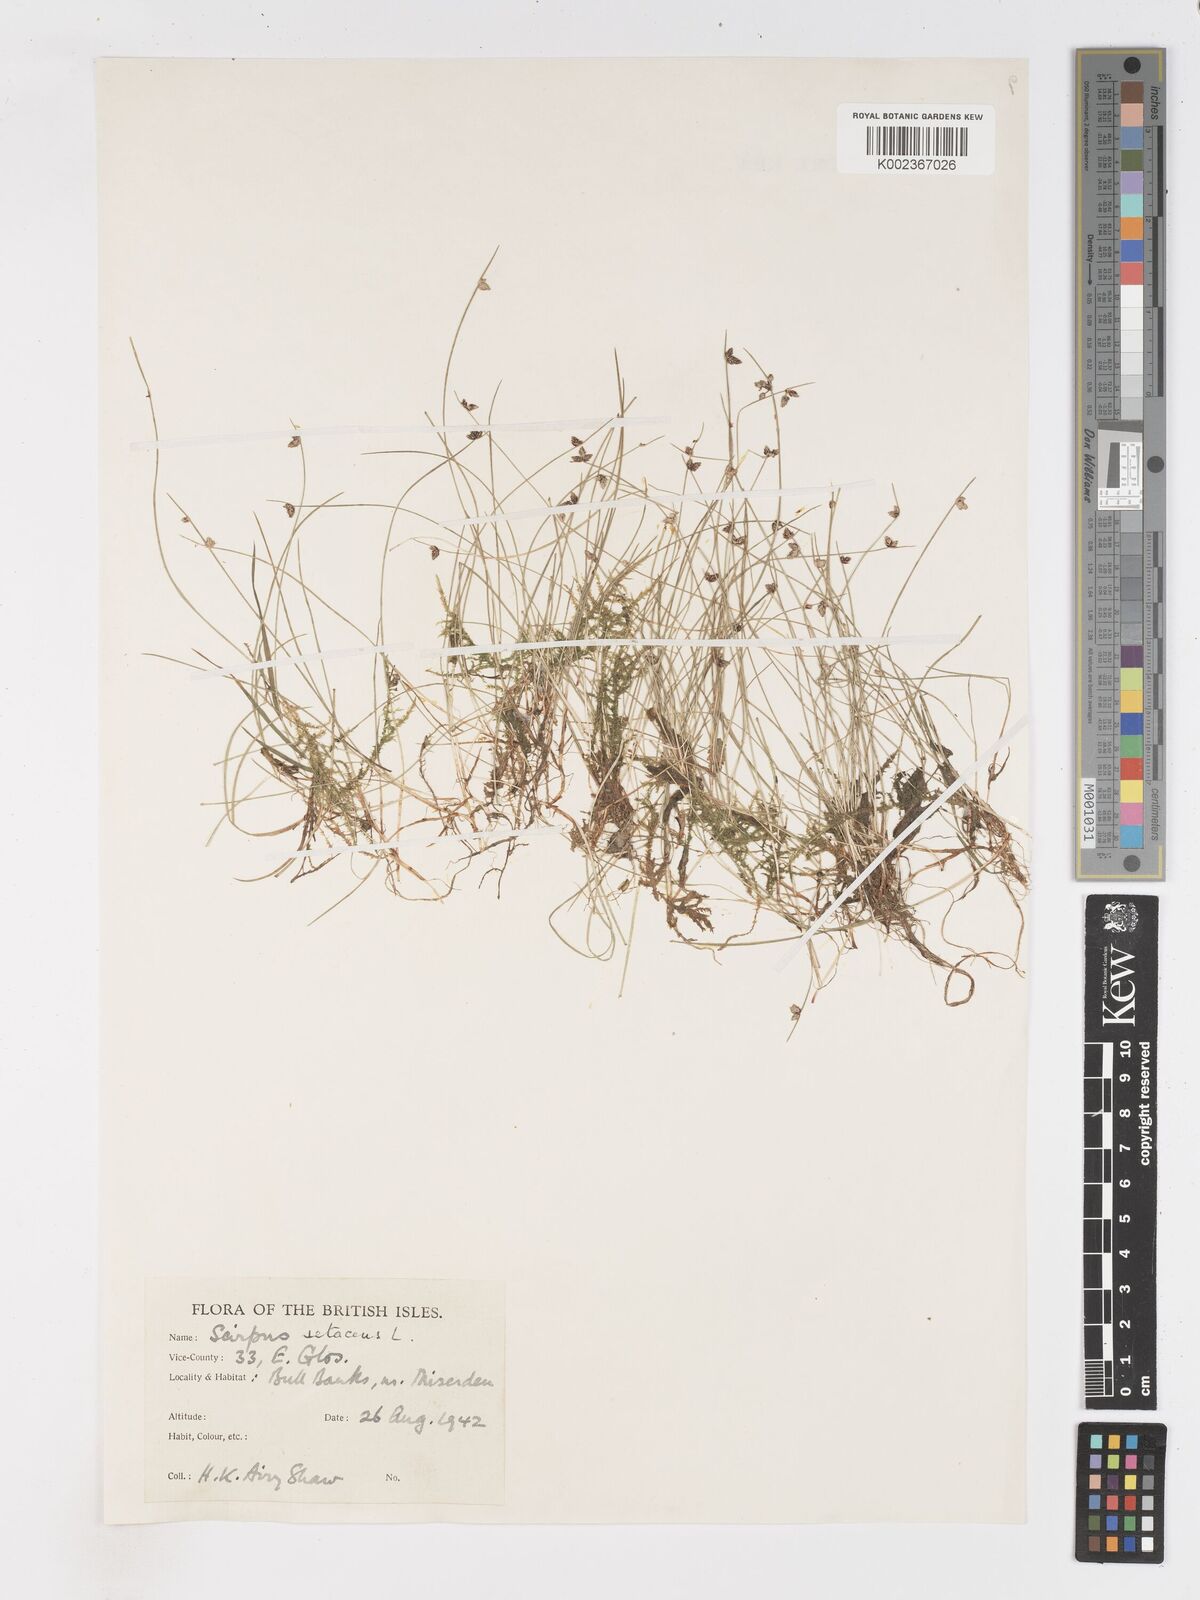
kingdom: Plantae
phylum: Tracheophyta
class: Liliopsida
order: Poales
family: Cyperaceae
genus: Isolepis
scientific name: Isolepis setacea
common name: Bristle club-rush
